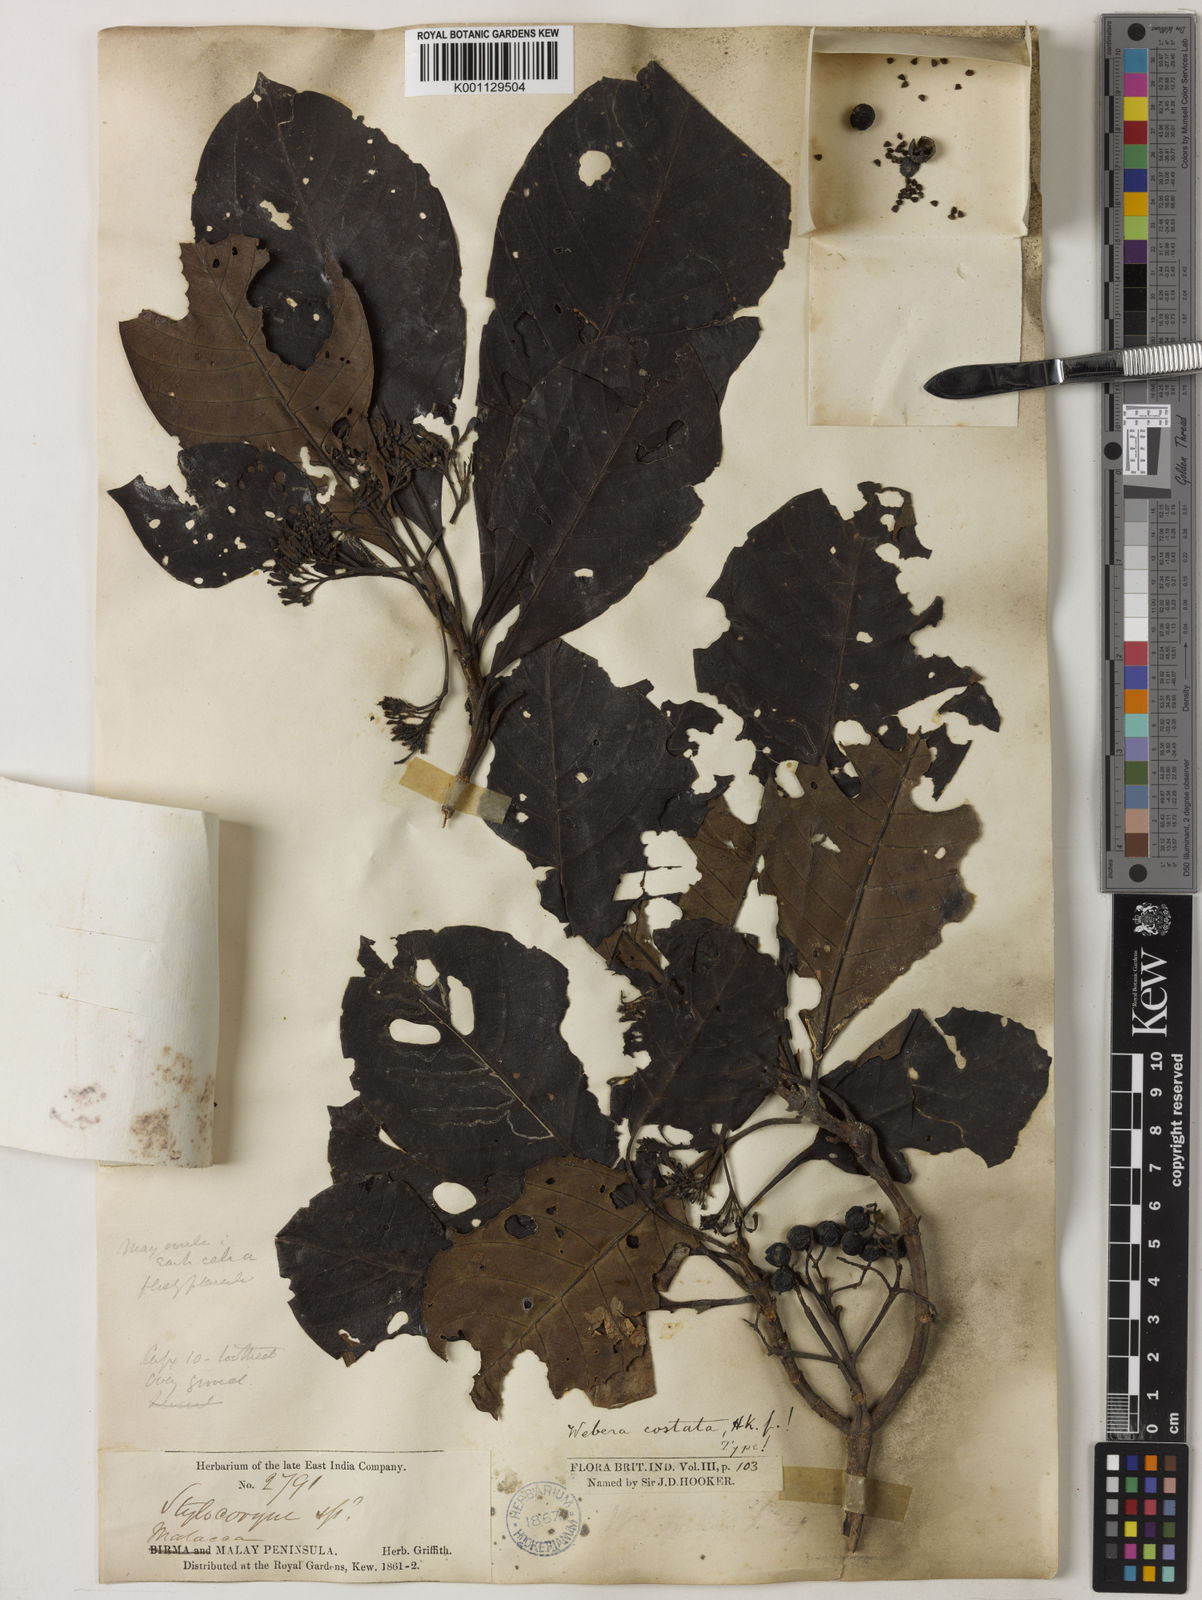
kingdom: Plantae
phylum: Tracheophyta
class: Magnoliopsida
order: Gentianales
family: Rubiaceae
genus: Tarenna
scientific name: Tarenna costata
